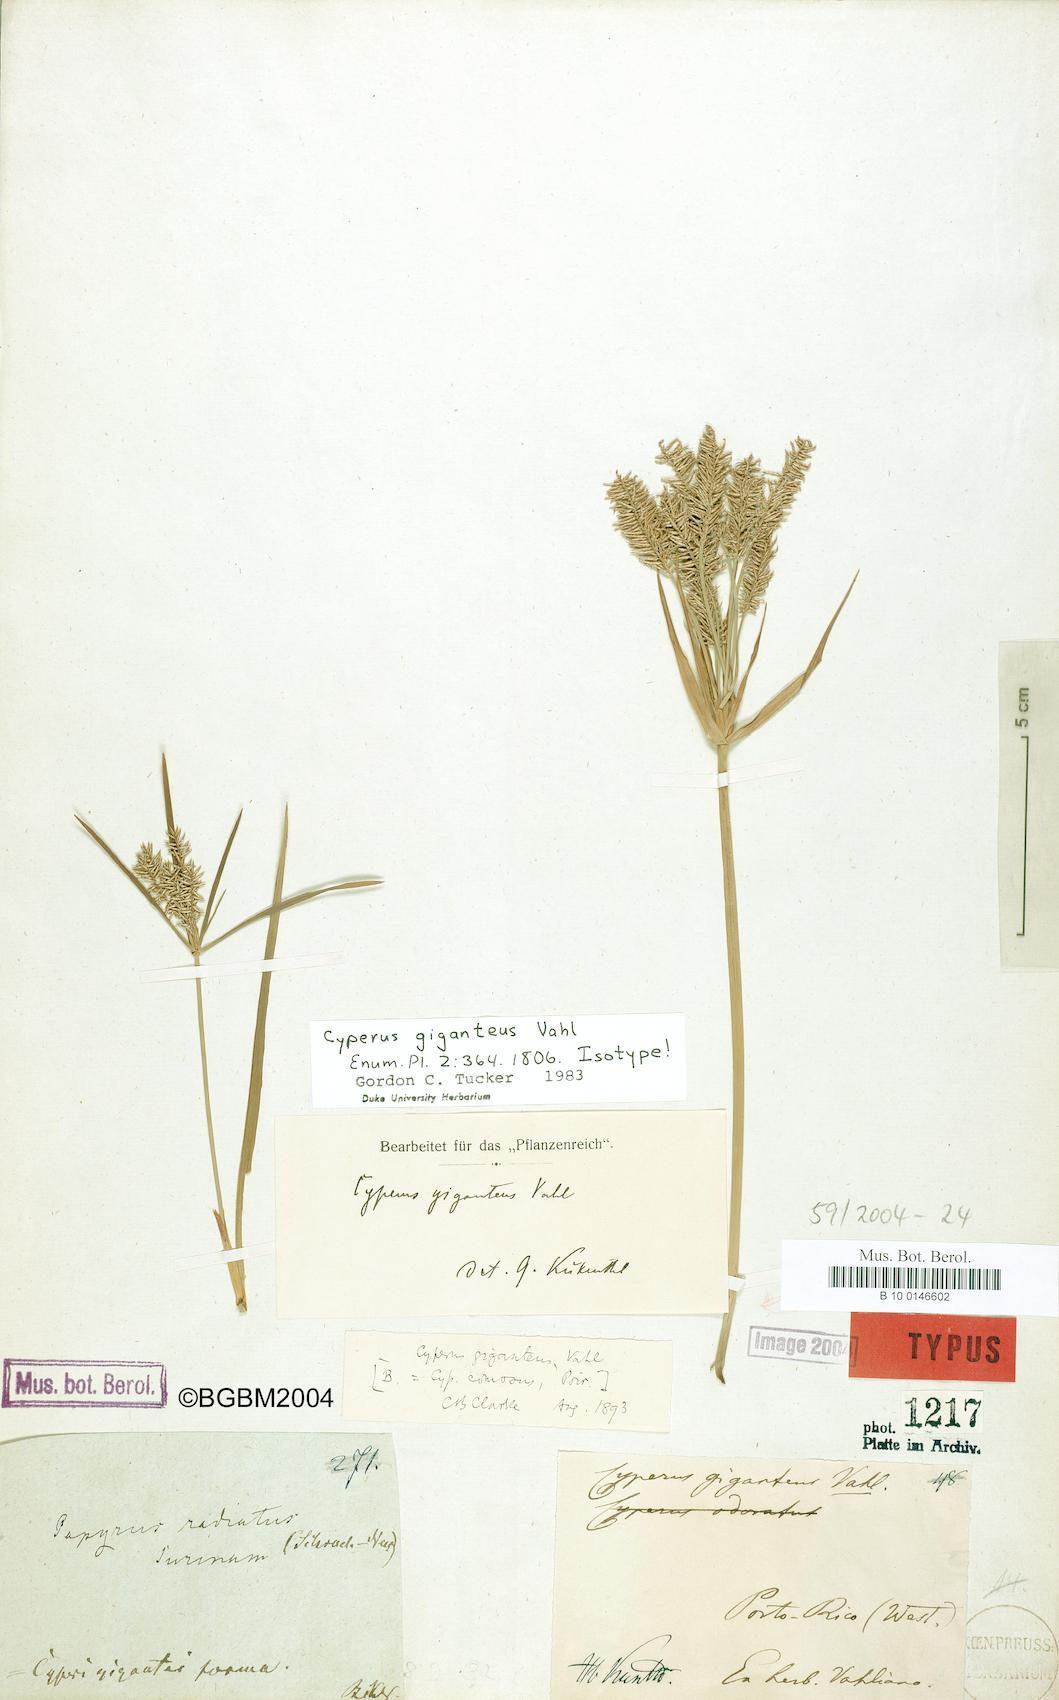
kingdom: Plantae
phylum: Tracheophyta
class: Liliopsida
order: Poales
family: Cyperaceae
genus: Cyperus
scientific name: Cyperus giganteus
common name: Giant flat sedge
